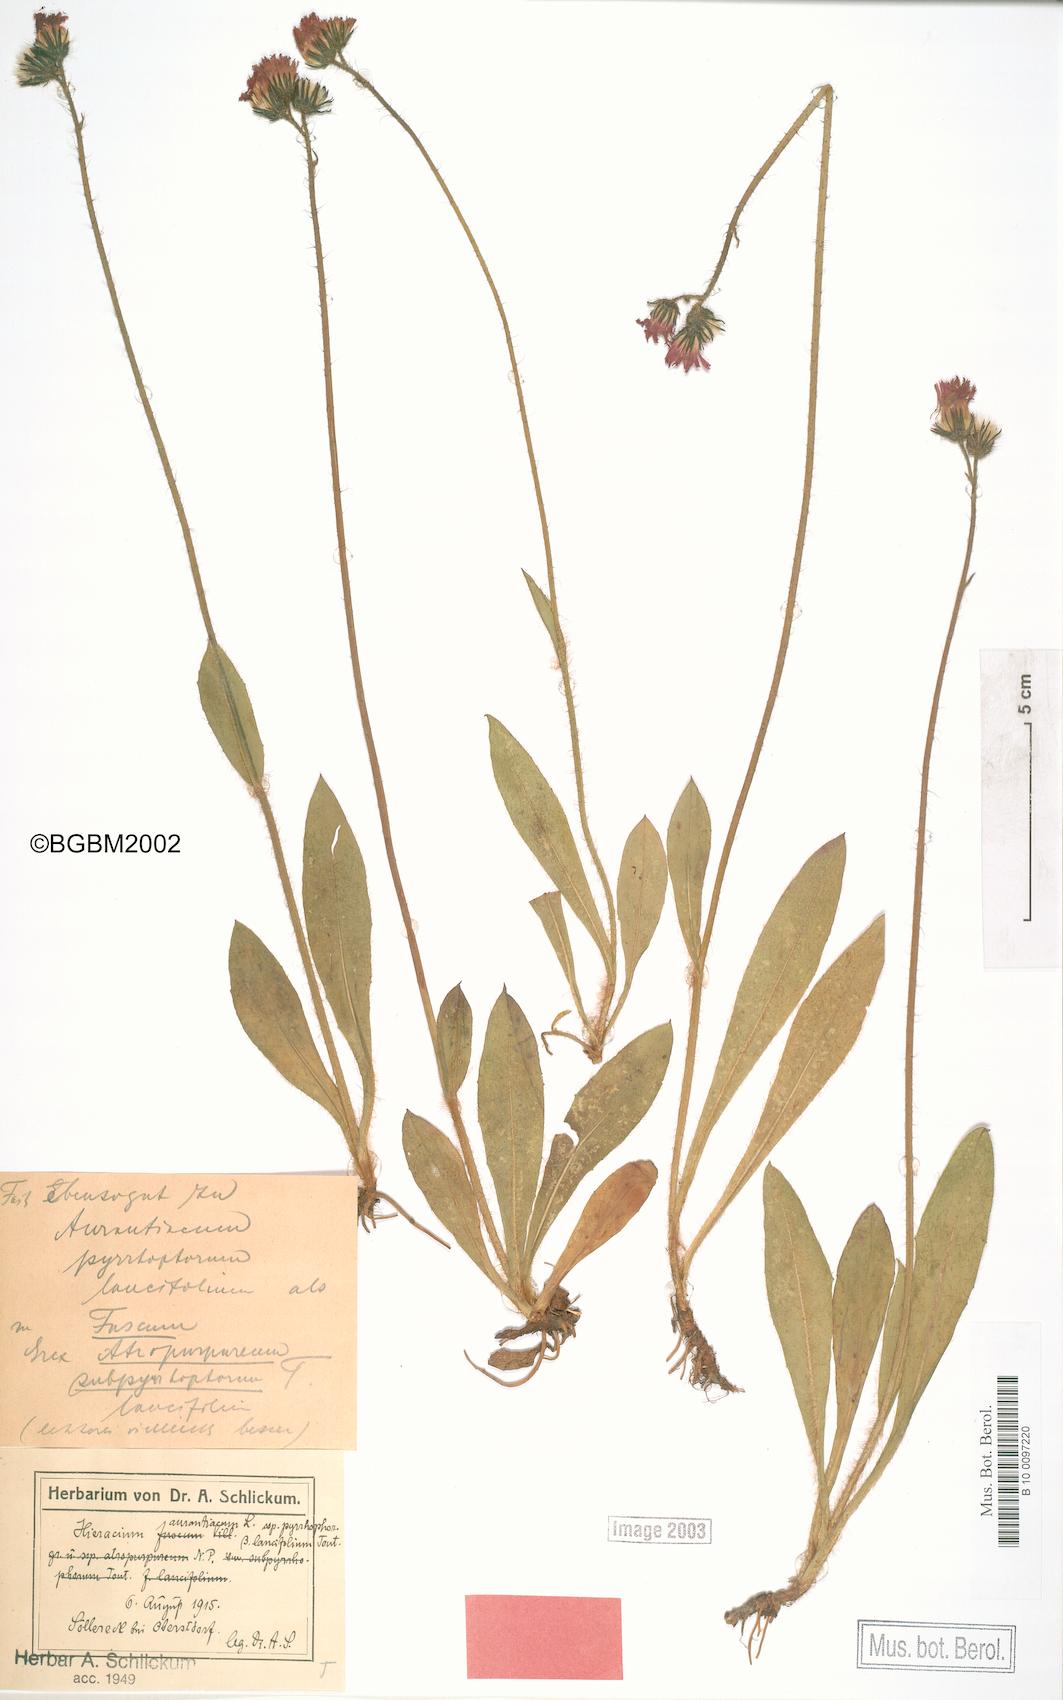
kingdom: Plantae
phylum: Tracheophyta
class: Magnoliopsida
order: Asterales
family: Asteraceae
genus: Pilosella
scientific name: Pilosella aurantiaca
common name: Fox-and-cubs
